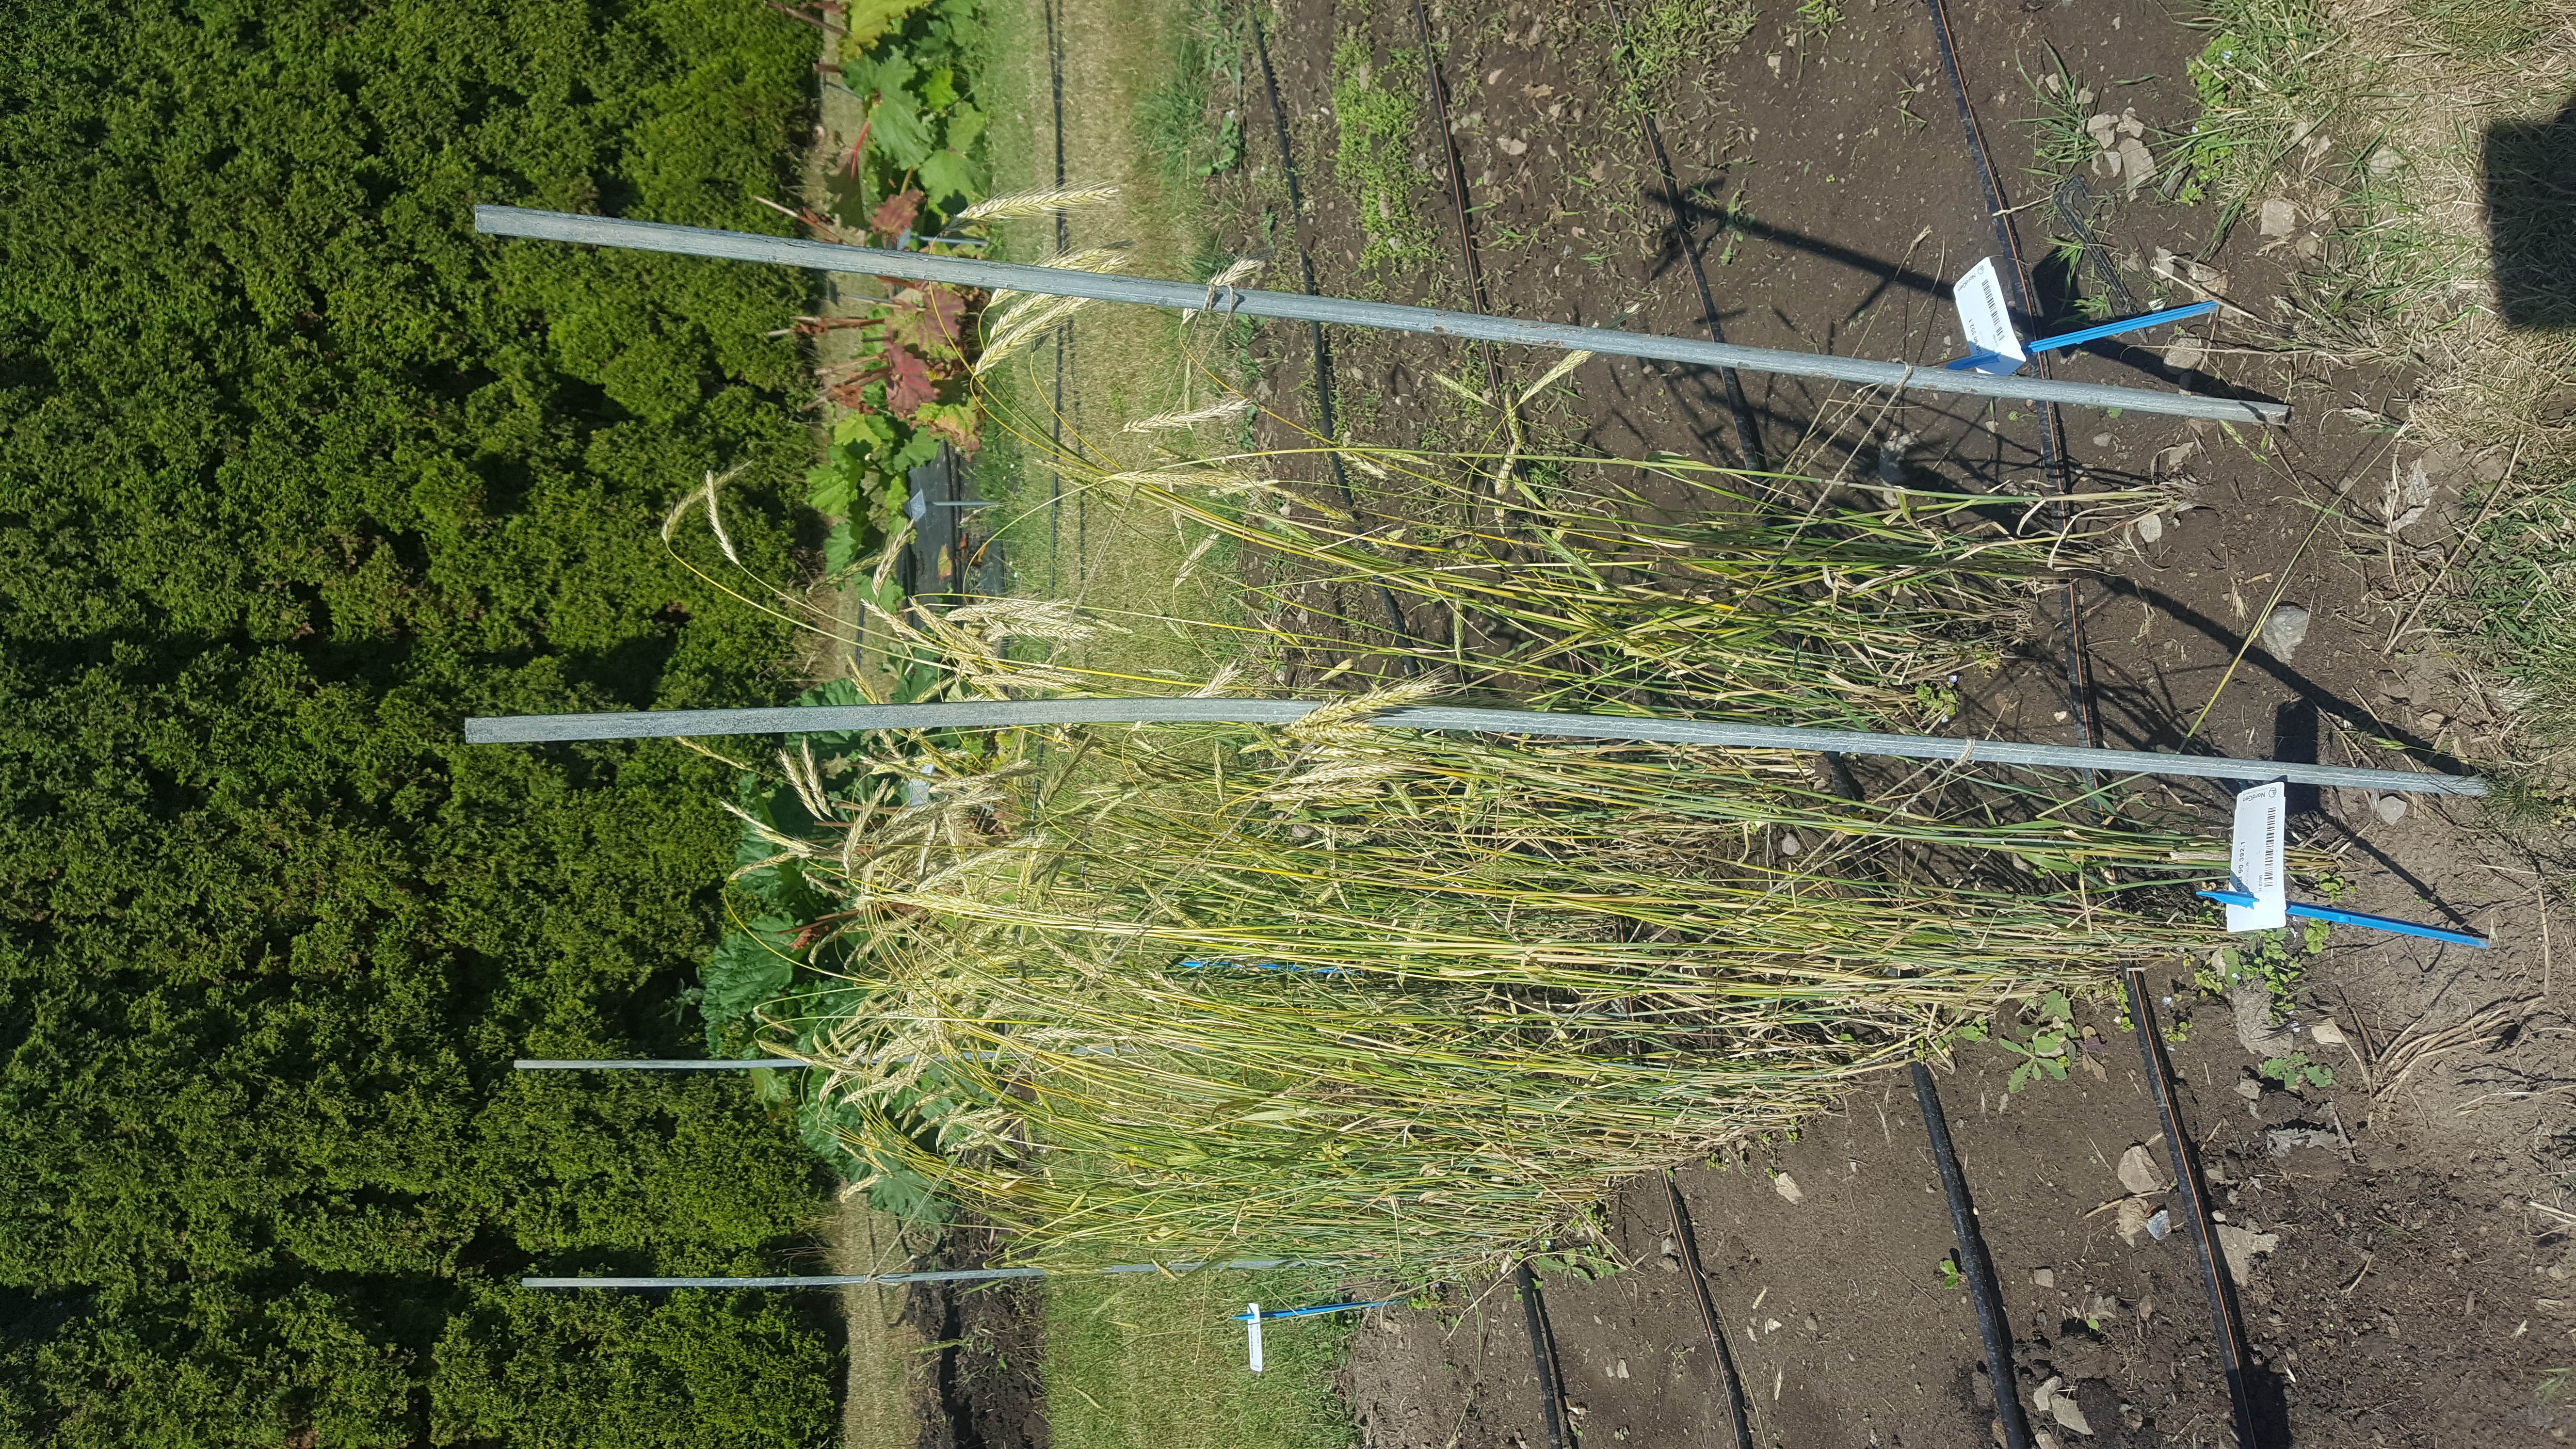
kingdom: Plantae
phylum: Tracheophyta
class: Liliopsida
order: Poales
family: Poaceae
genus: Secale
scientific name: Secale cereale
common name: Rye
